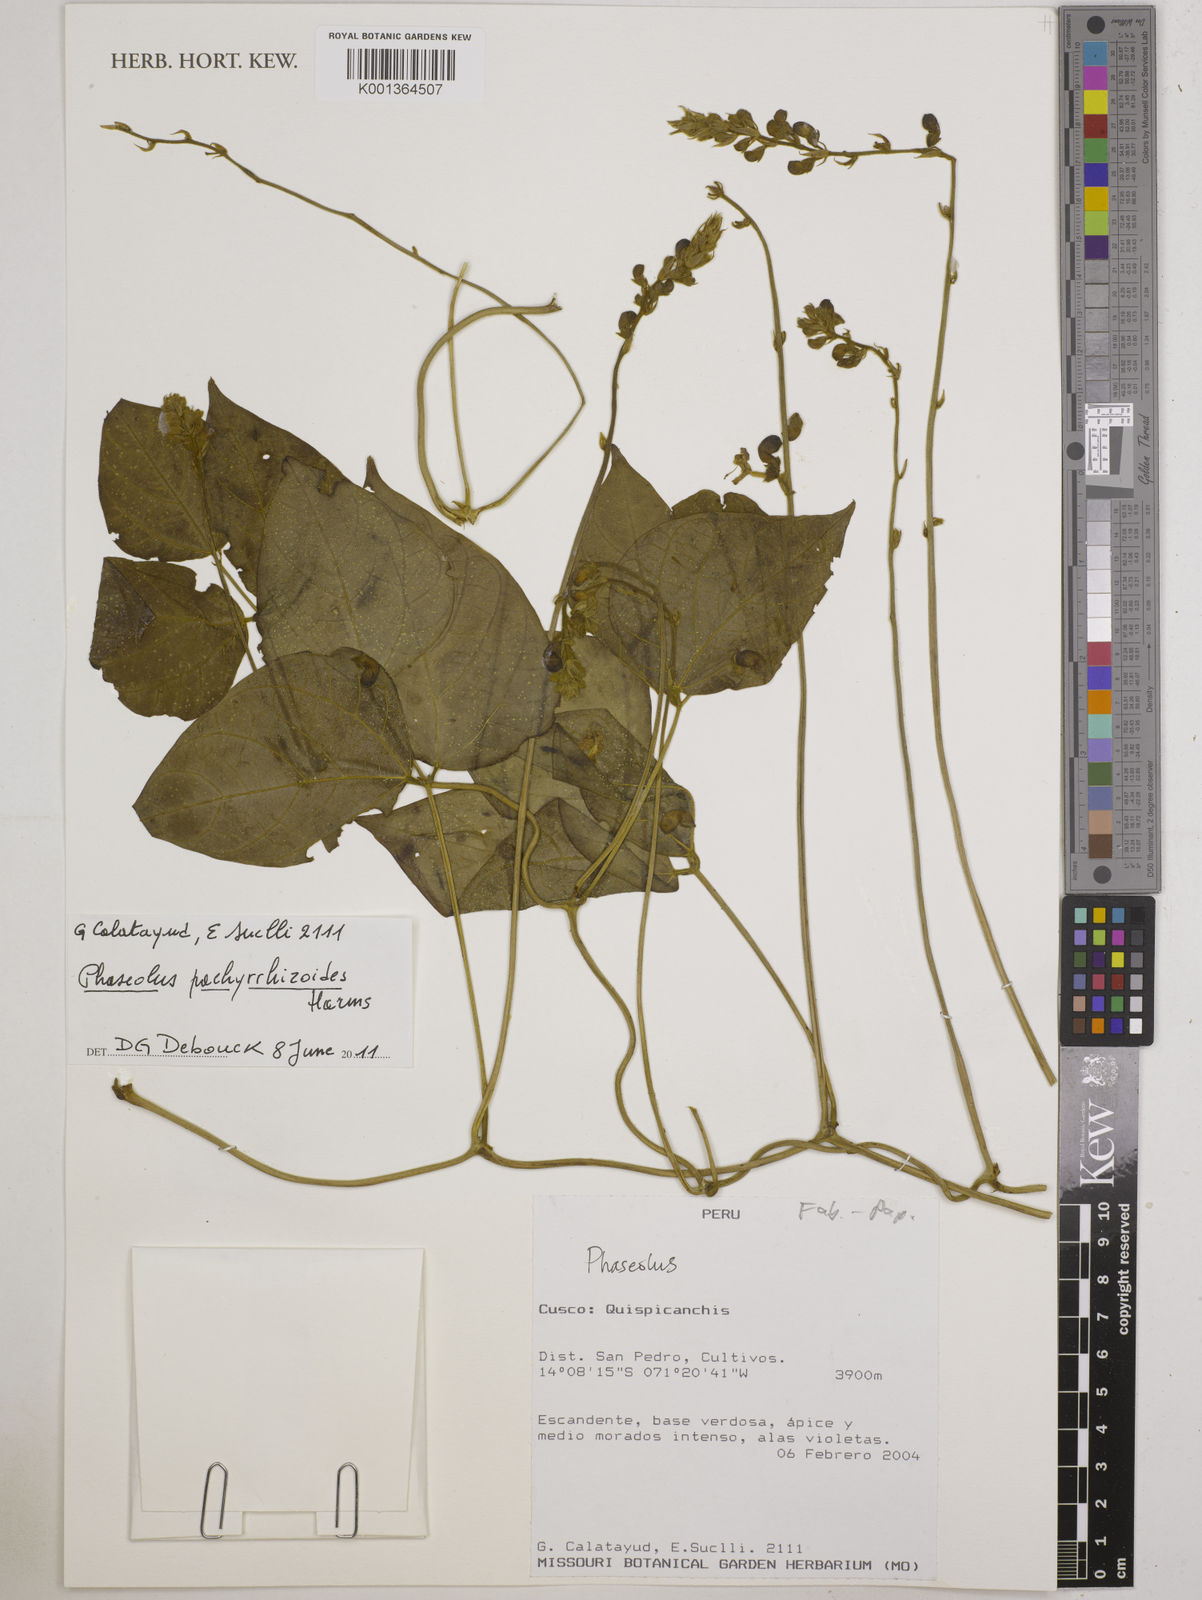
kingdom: Plantae
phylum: Tracheophyta
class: Magnoliopsida
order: Fabales
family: Fabaceae
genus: Ramirezella
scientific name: Ramirezella strobilophora
